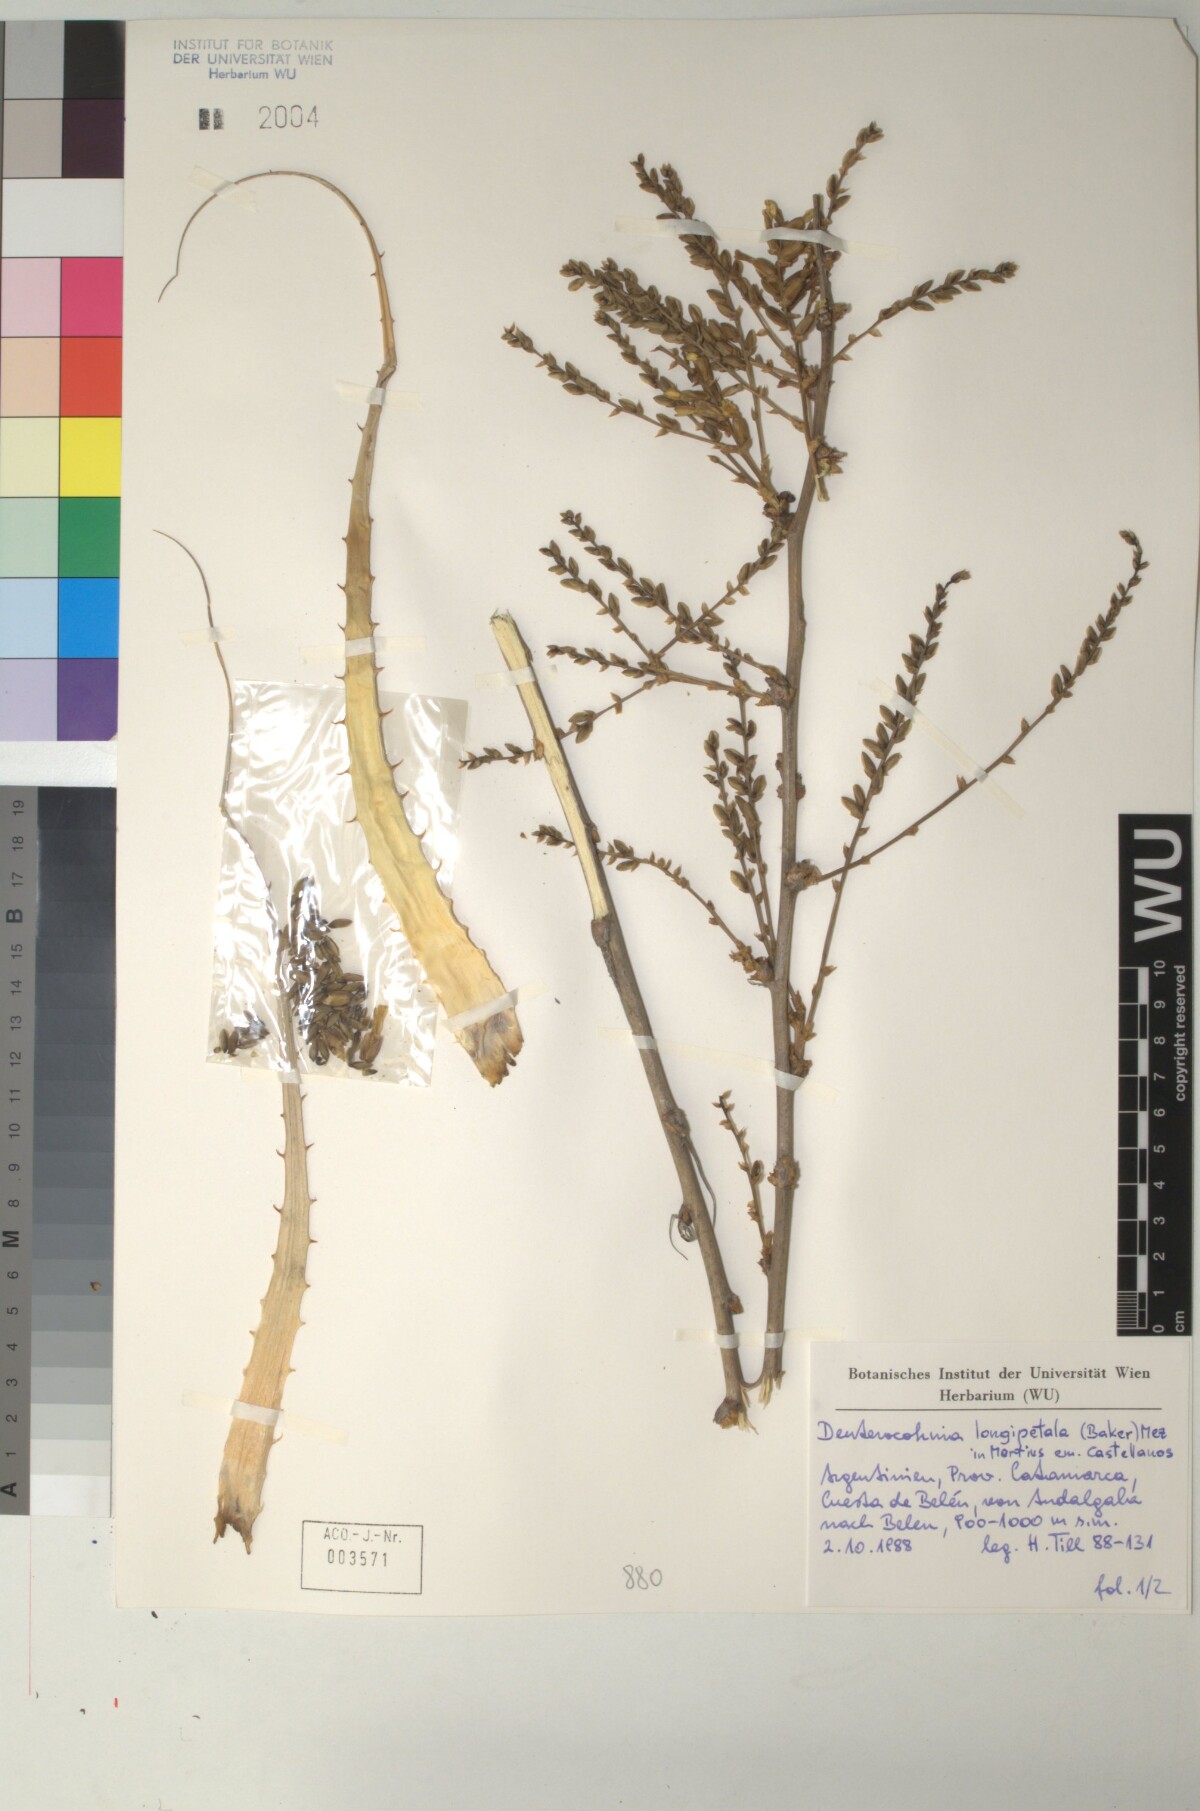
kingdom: Plantae
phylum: Tracheophyta
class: Liliopsida
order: Poales
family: Bromeliaceae
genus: Deuterocohnia
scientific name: Deuterocohnia longipetala
